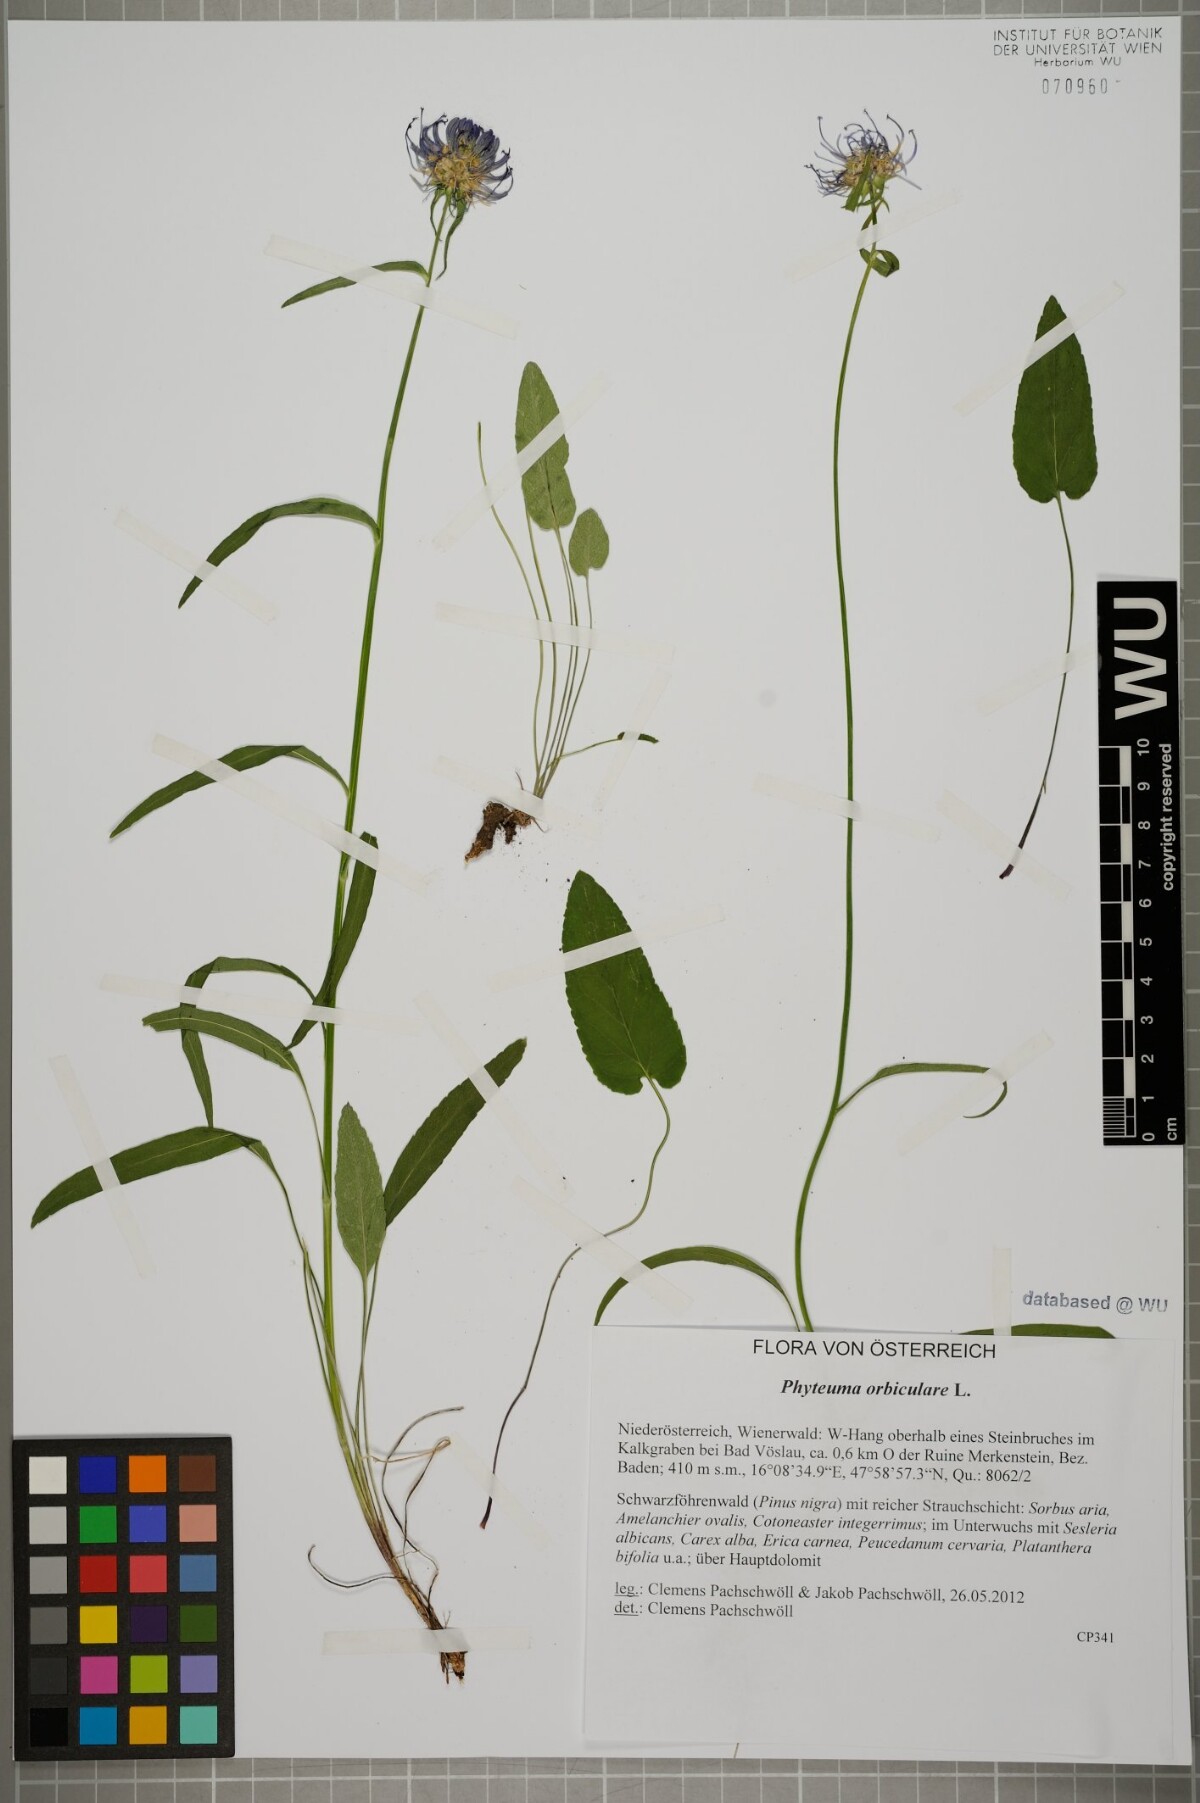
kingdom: Plantae
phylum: Tracheophyta
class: Magnoliopsida
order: Asterales
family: Campanulaceae
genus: Phyteuma
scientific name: Phyteuma orbiculare
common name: Round-headed rampion
